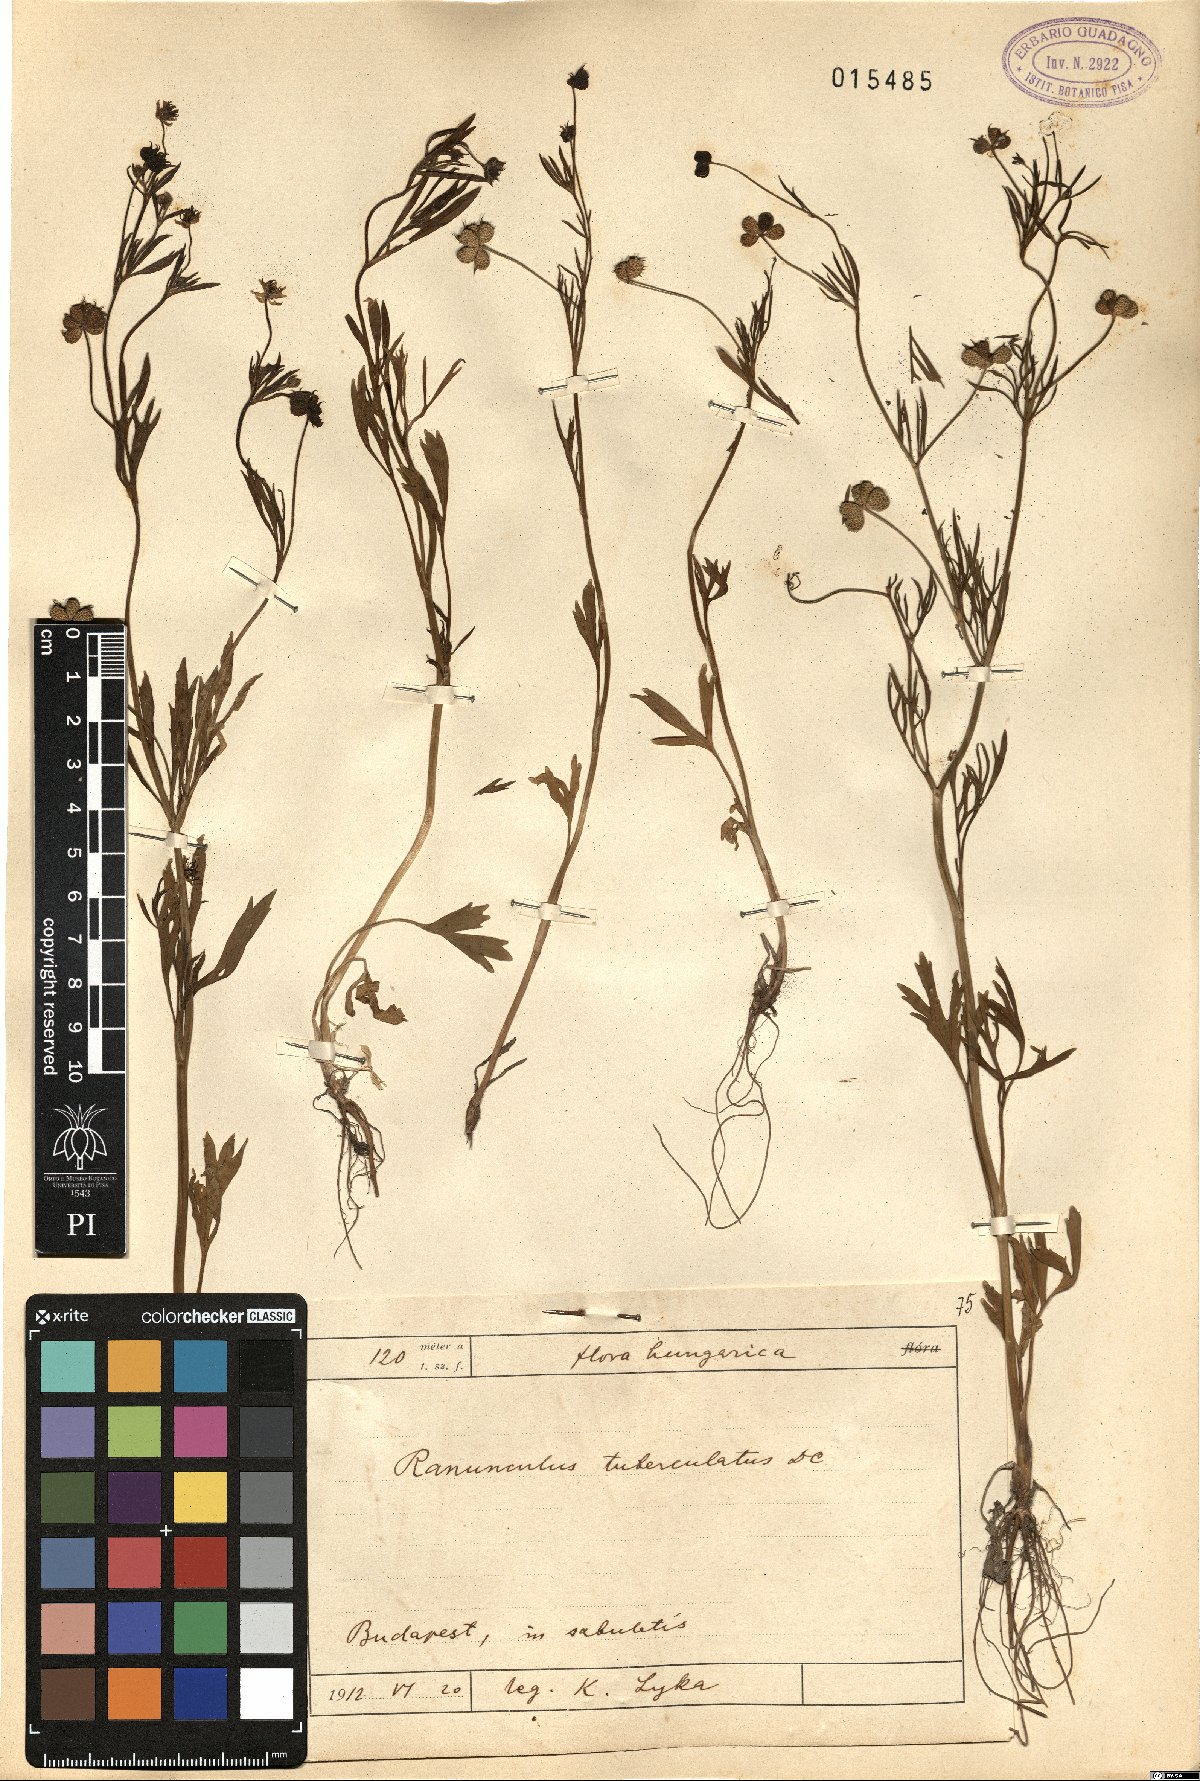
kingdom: Plantae
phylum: Tracheophyta
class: Magnoliopsida
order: Ranunculales
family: Ranunculaceae
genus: Ranunculus
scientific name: Ranunculus arvensis
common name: Corn buttercup
